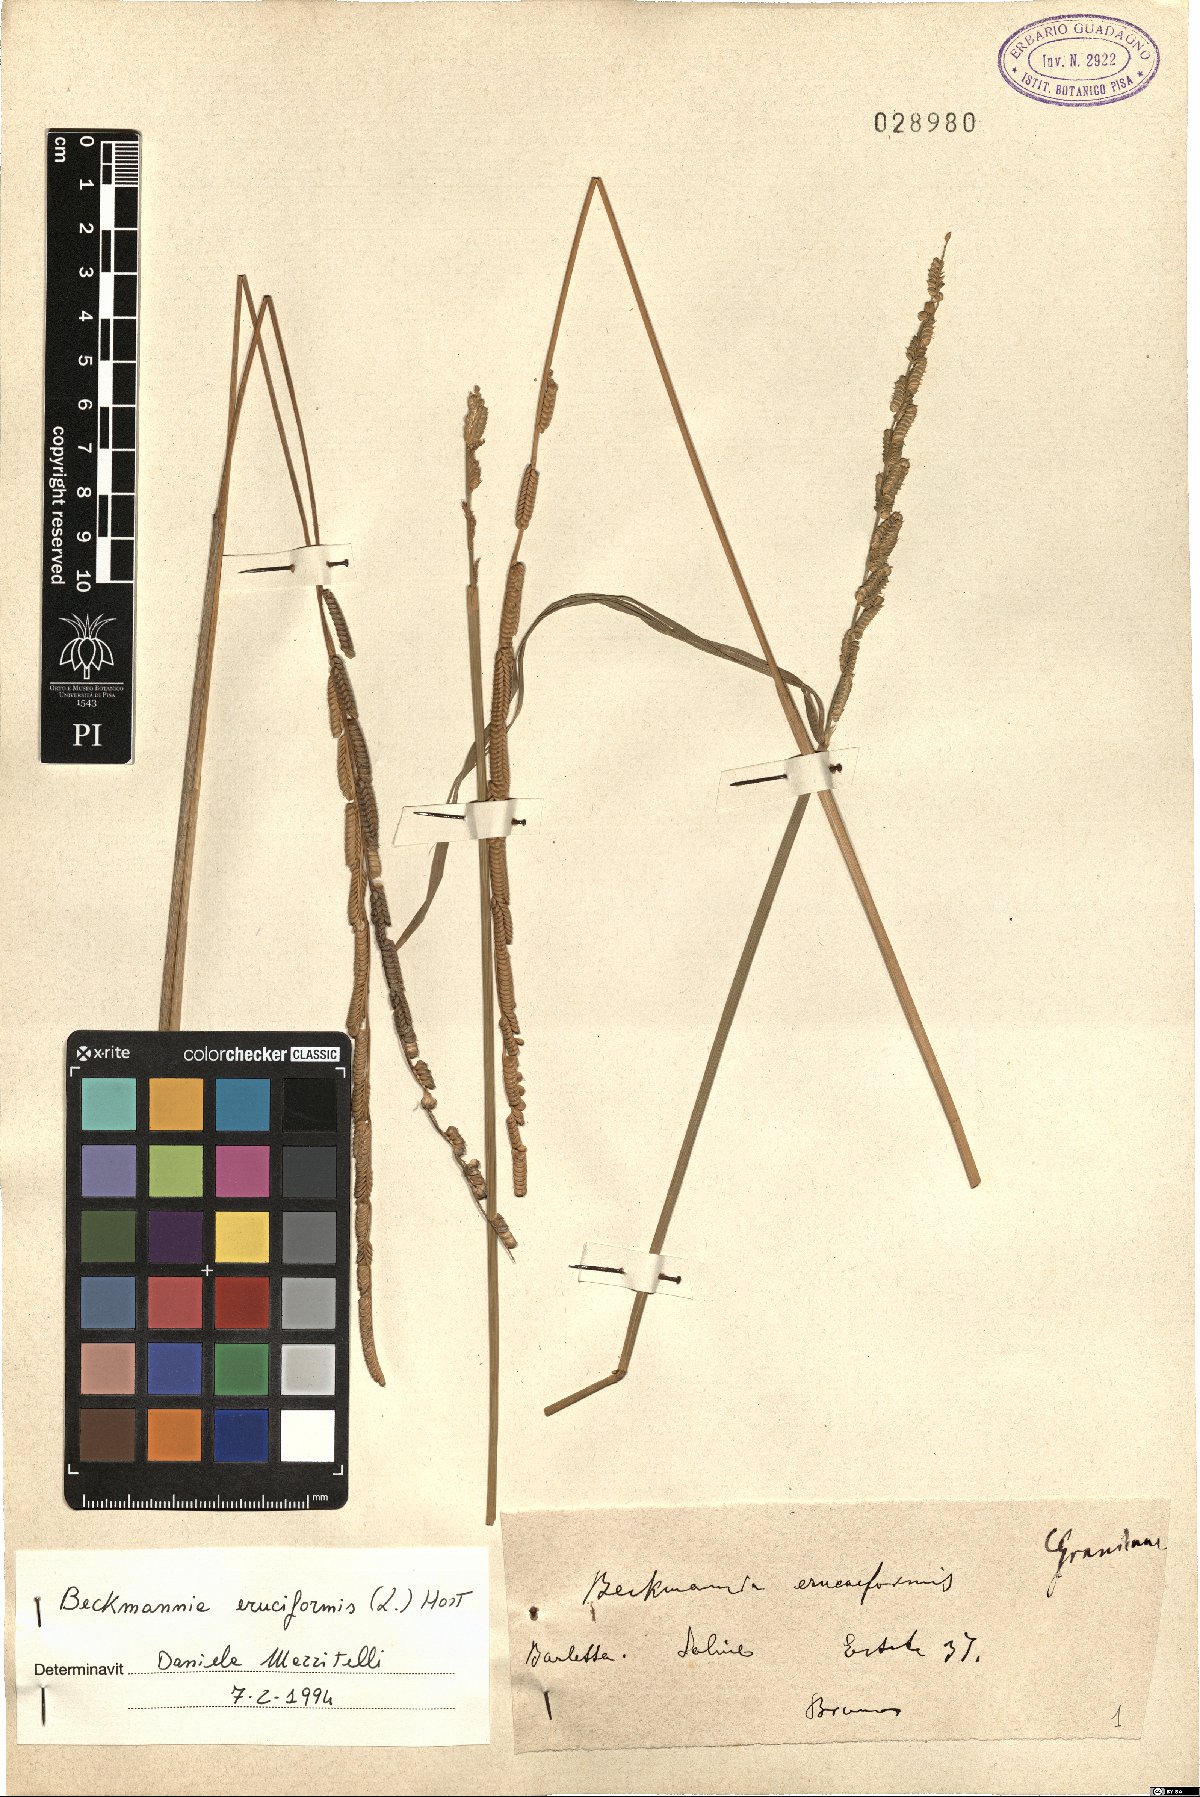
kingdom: Plantae
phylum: Tracheophyta
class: Liliopsida
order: Poales
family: Poaceae
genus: Beckmannia
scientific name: Beckmannia eruciformis
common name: European slough-grass
